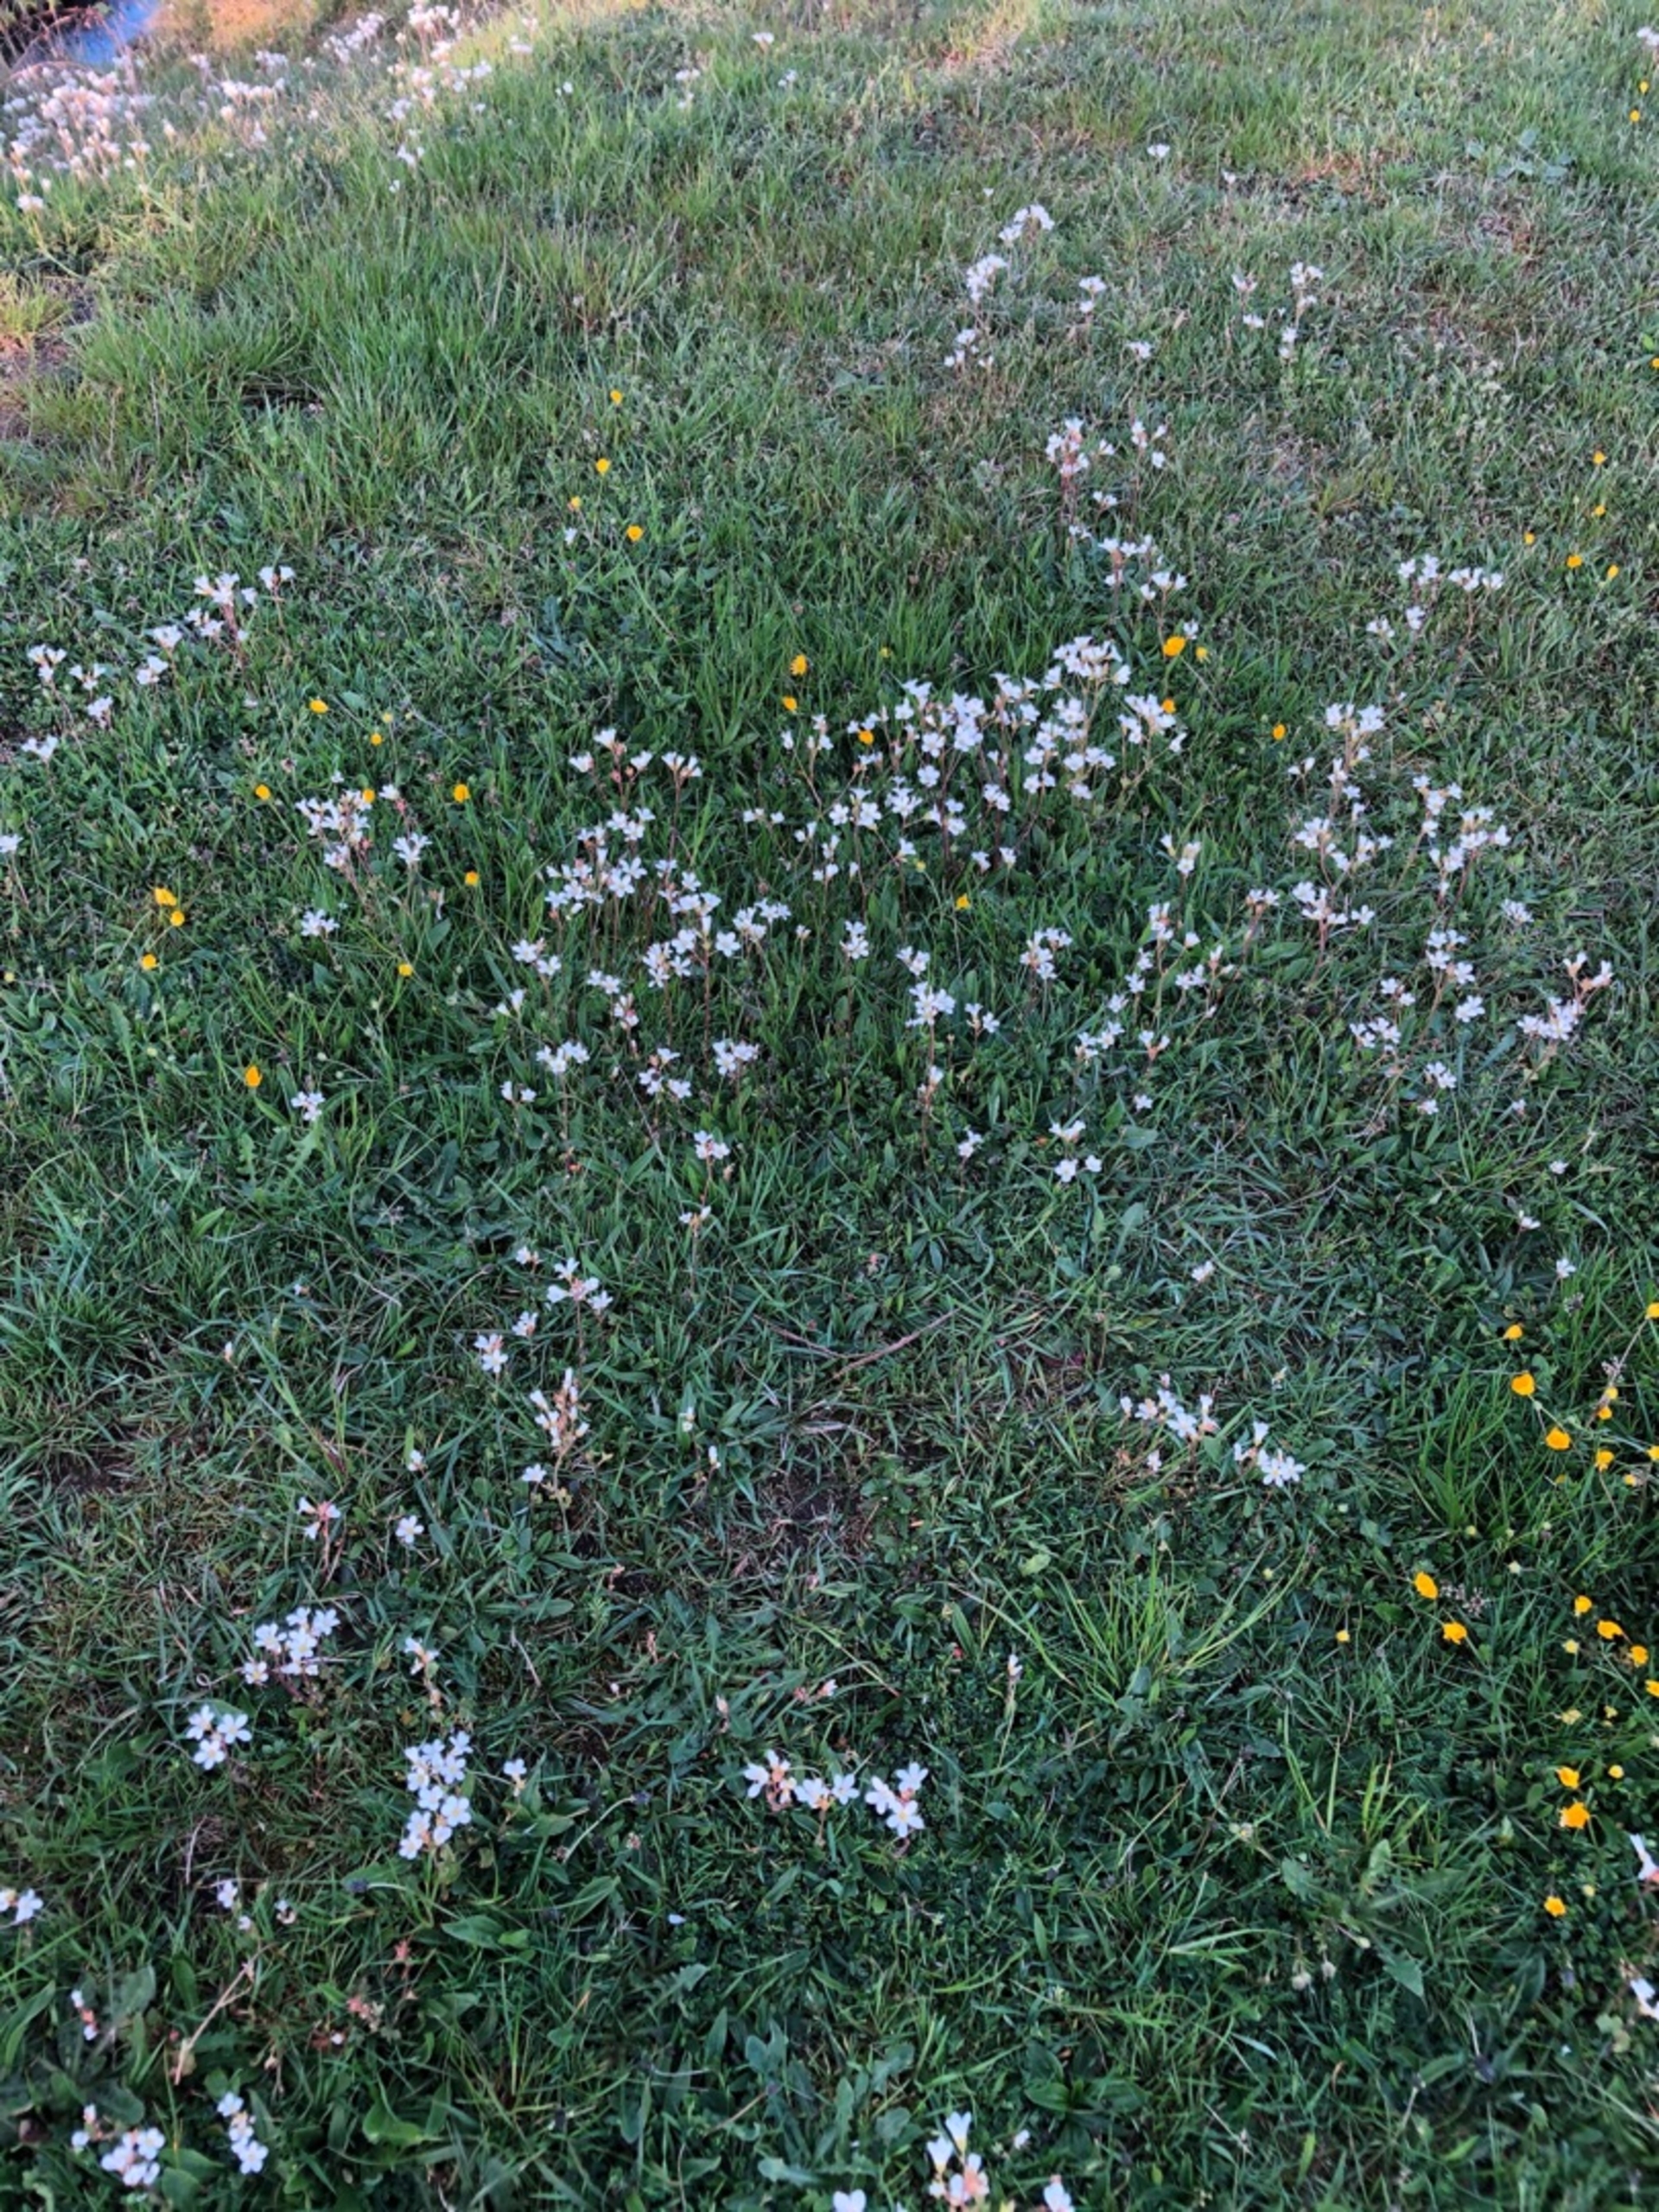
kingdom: Plantae
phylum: Tracheophyta
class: Magnoliopsida
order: Saxifragales
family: Saxifragaceae
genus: Saxifraga
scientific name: Saxifraga granulata
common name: Kornet stenbræk
